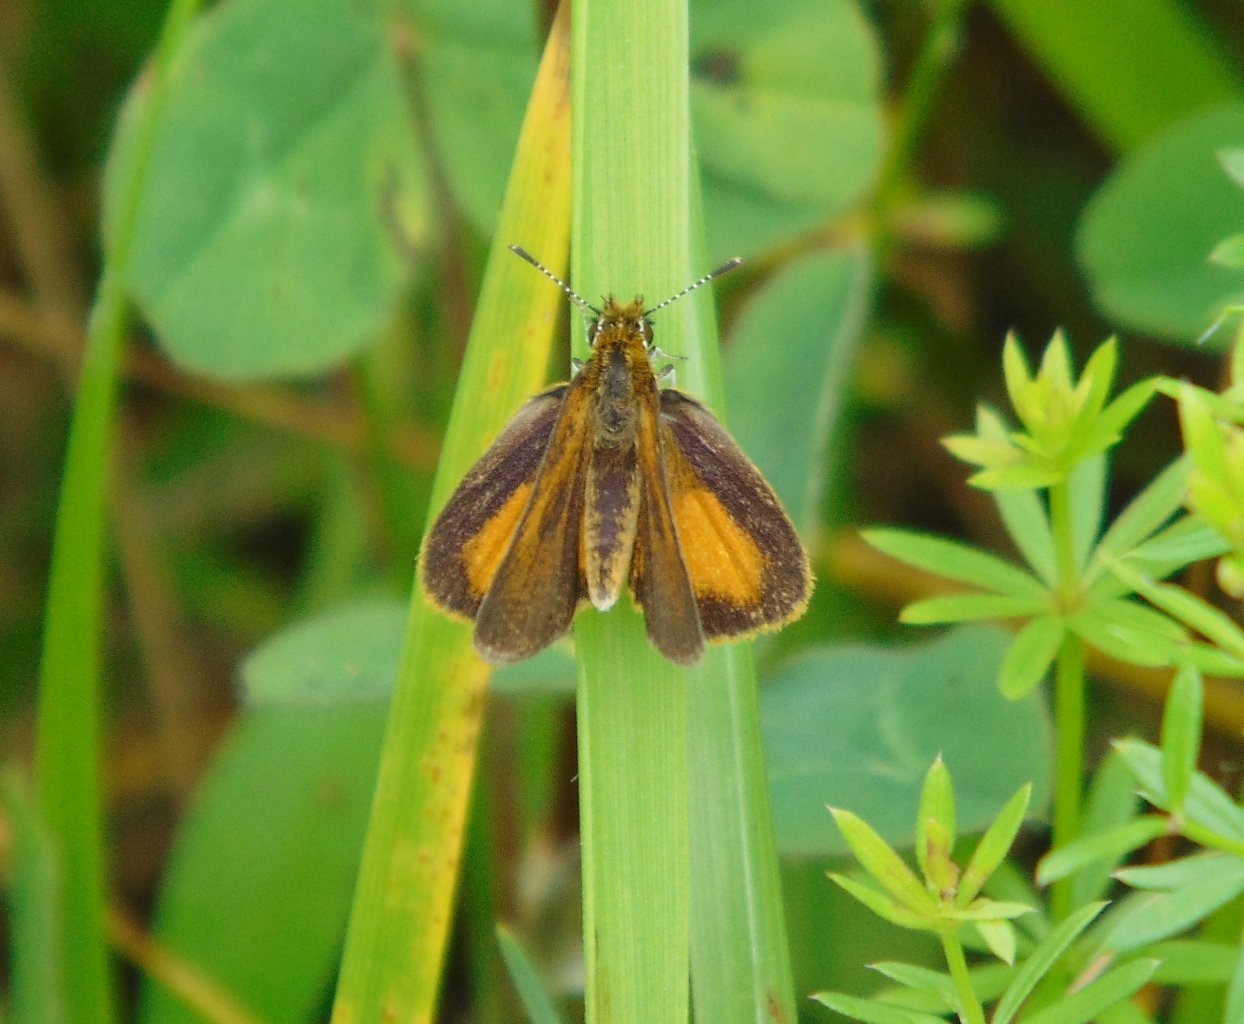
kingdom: Animalia
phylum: Arthropoda
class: Insecta
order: Lepidoptera
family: Hesperiidae
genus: Ancyloxypha
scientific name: Ancyloxypha numitor
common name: Least Skipper
